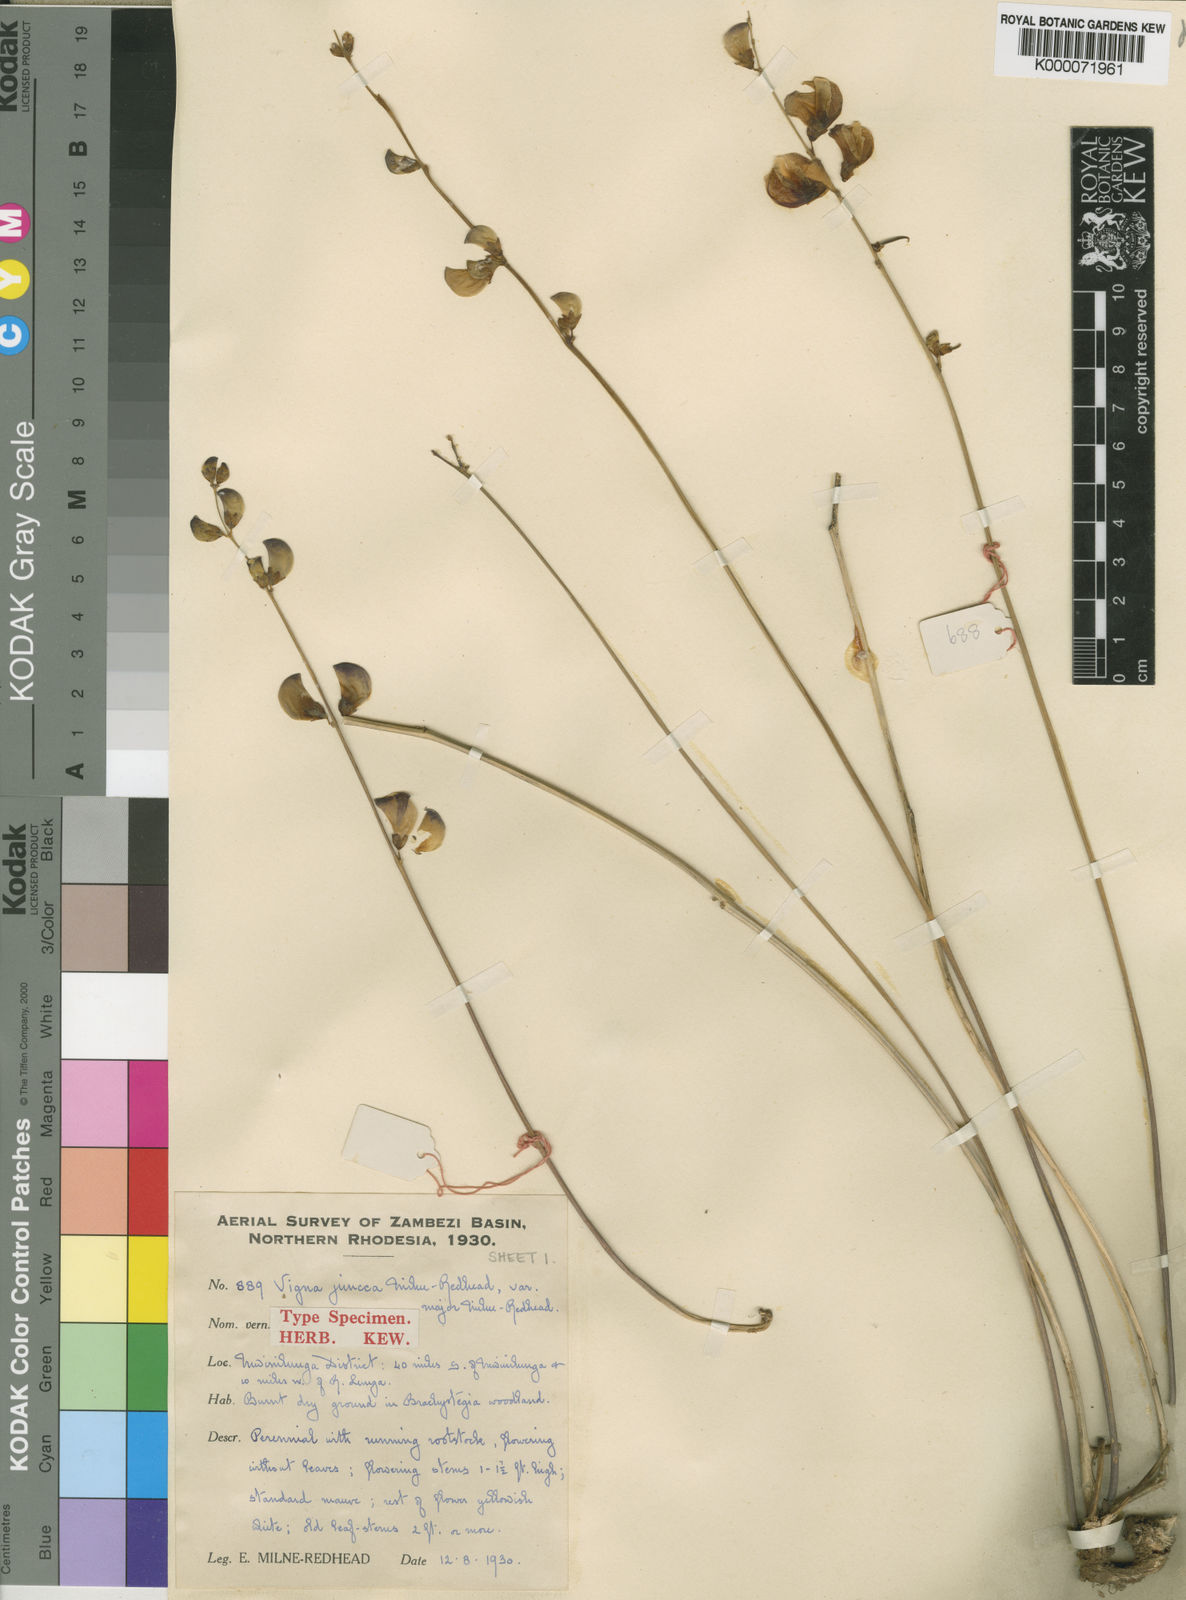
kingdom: Plantae
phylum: Tracheophyta
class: Magnoliopsida
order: Fabales
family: Fabaceae
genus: Vigna
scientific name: Vigna juncea
